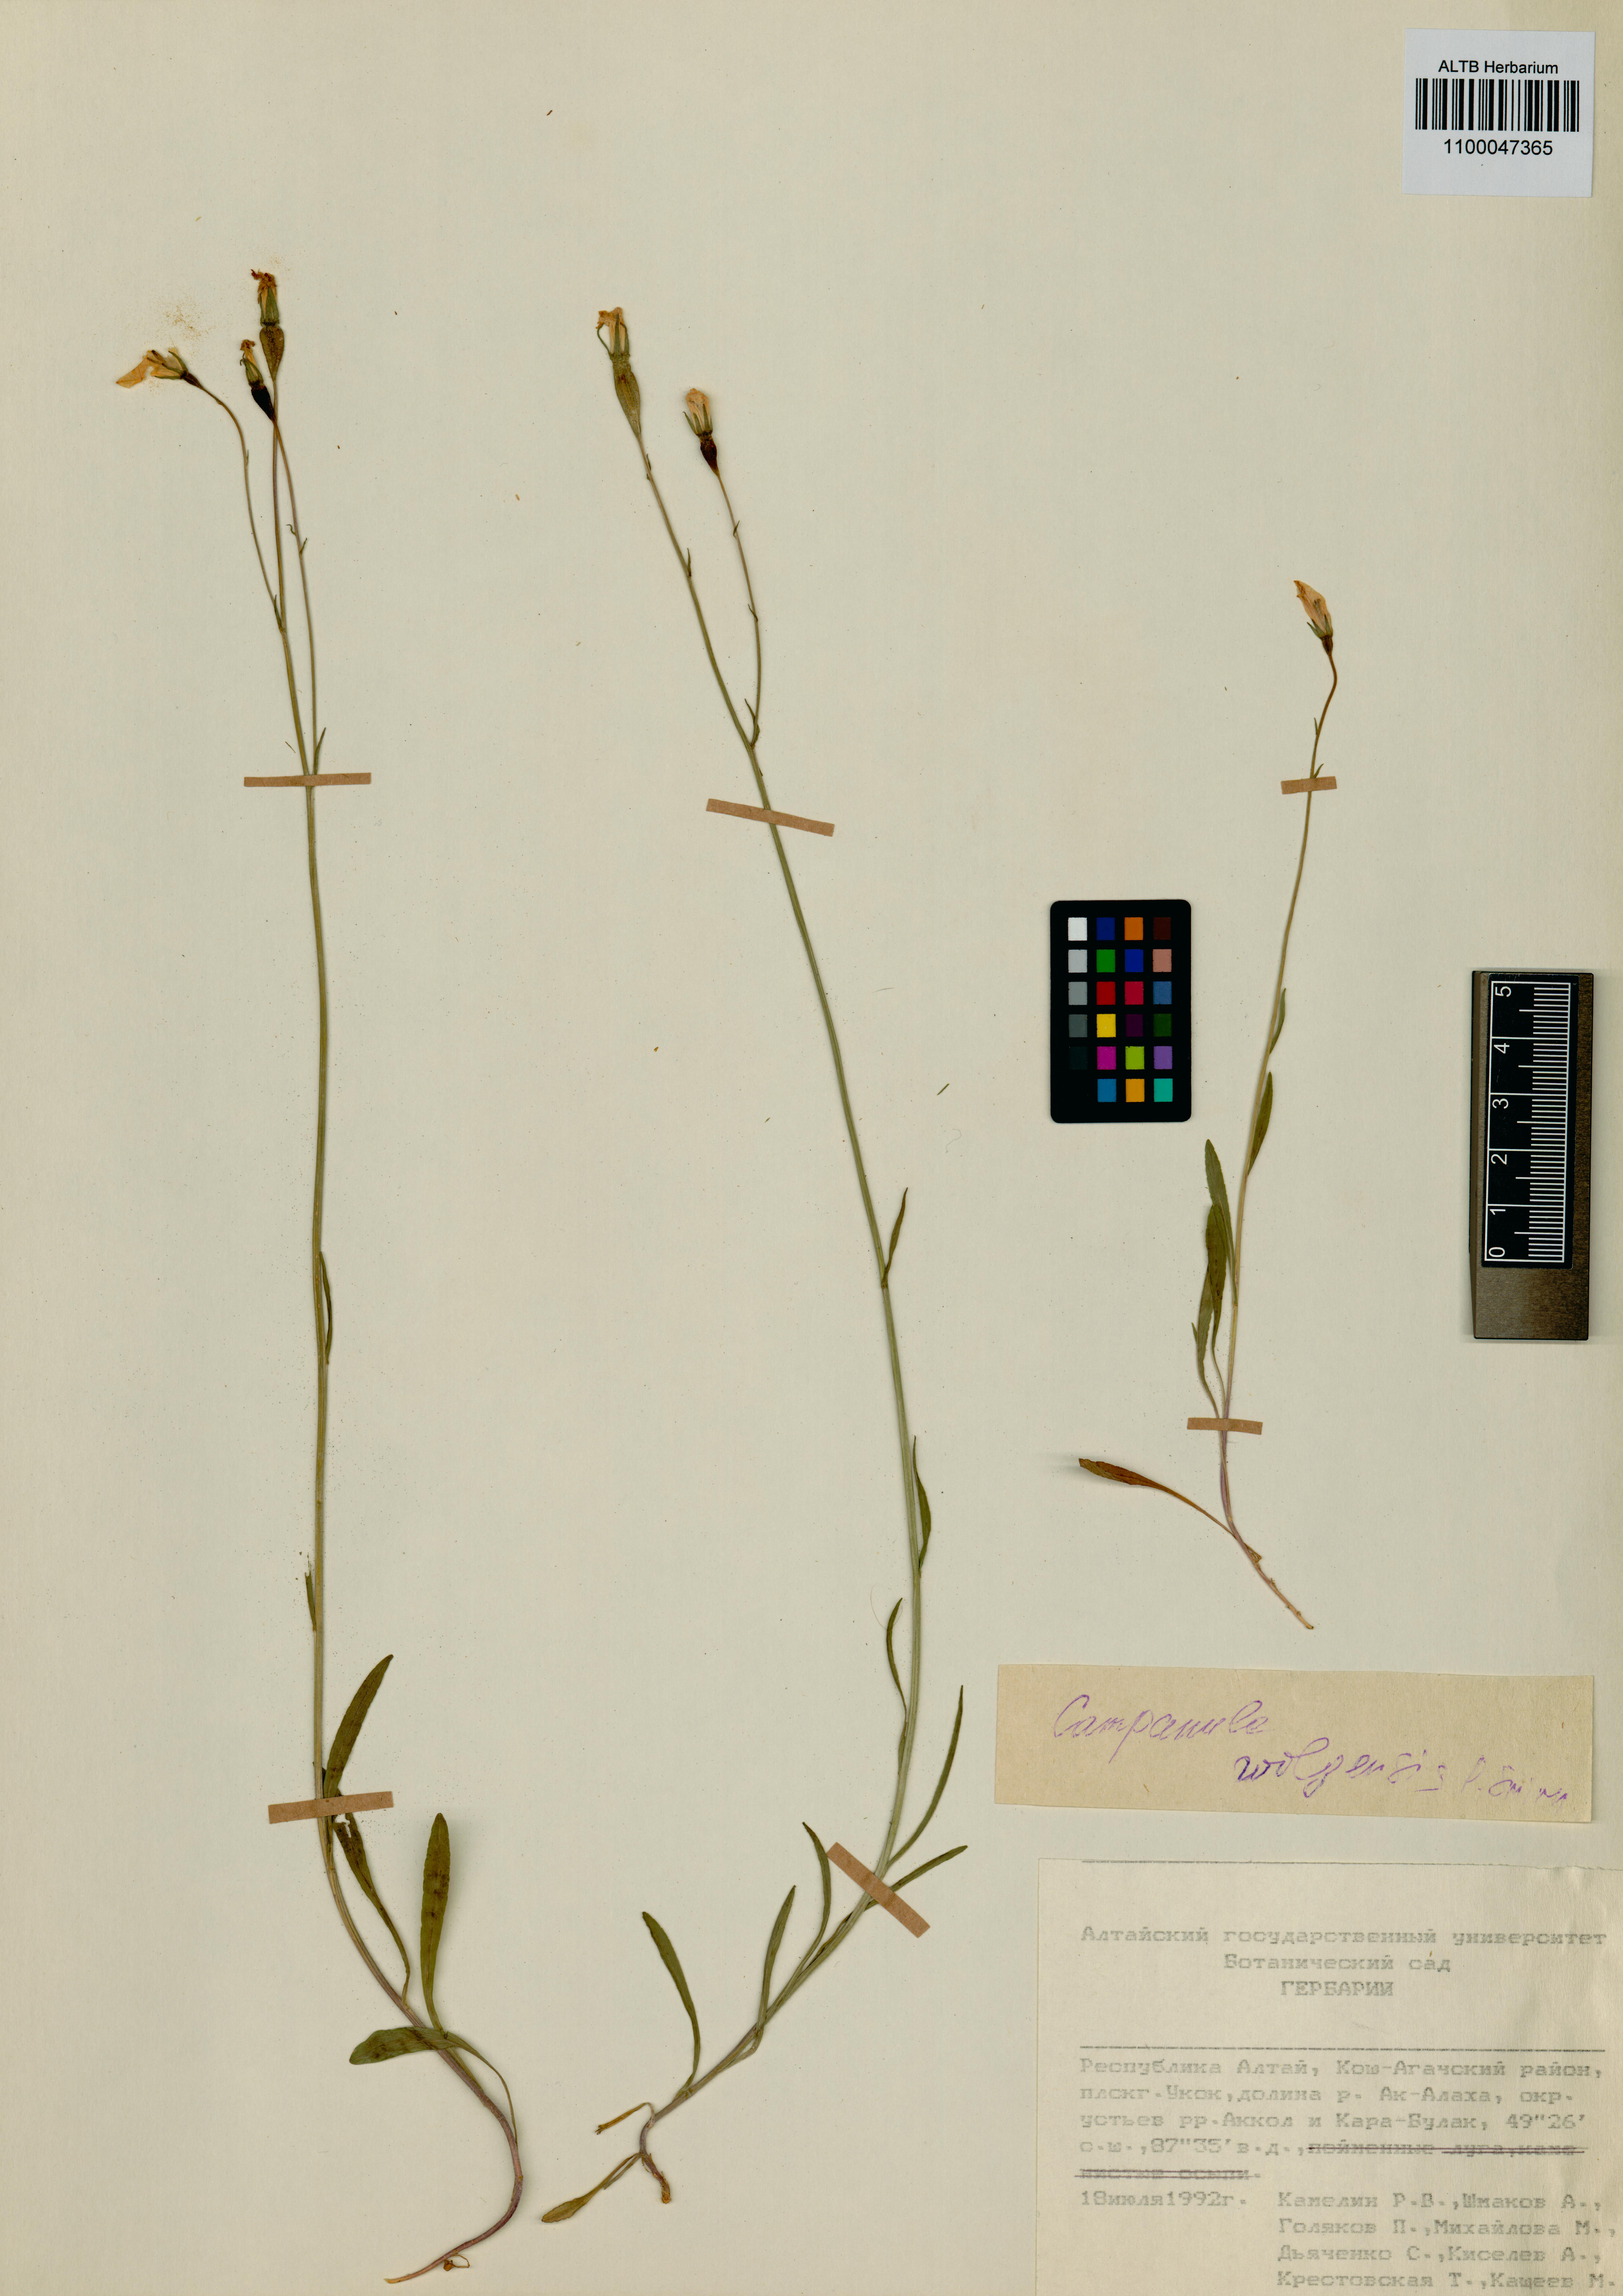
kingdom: Plantae
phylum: Tracheophyta
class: Magnoliopsida
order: Asterales
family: Campanulaceae
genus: Campanula
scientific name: Campanula stevenii
